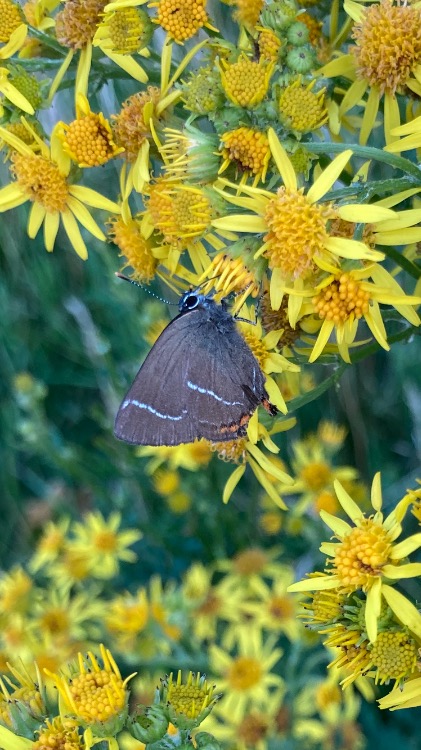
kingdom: Animalia
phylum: Arthropoda
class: Insecta
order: Lepidoptera
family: Lycaenidae
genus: Satyrium
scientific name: Satyrium w-album
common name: Det hvide W
